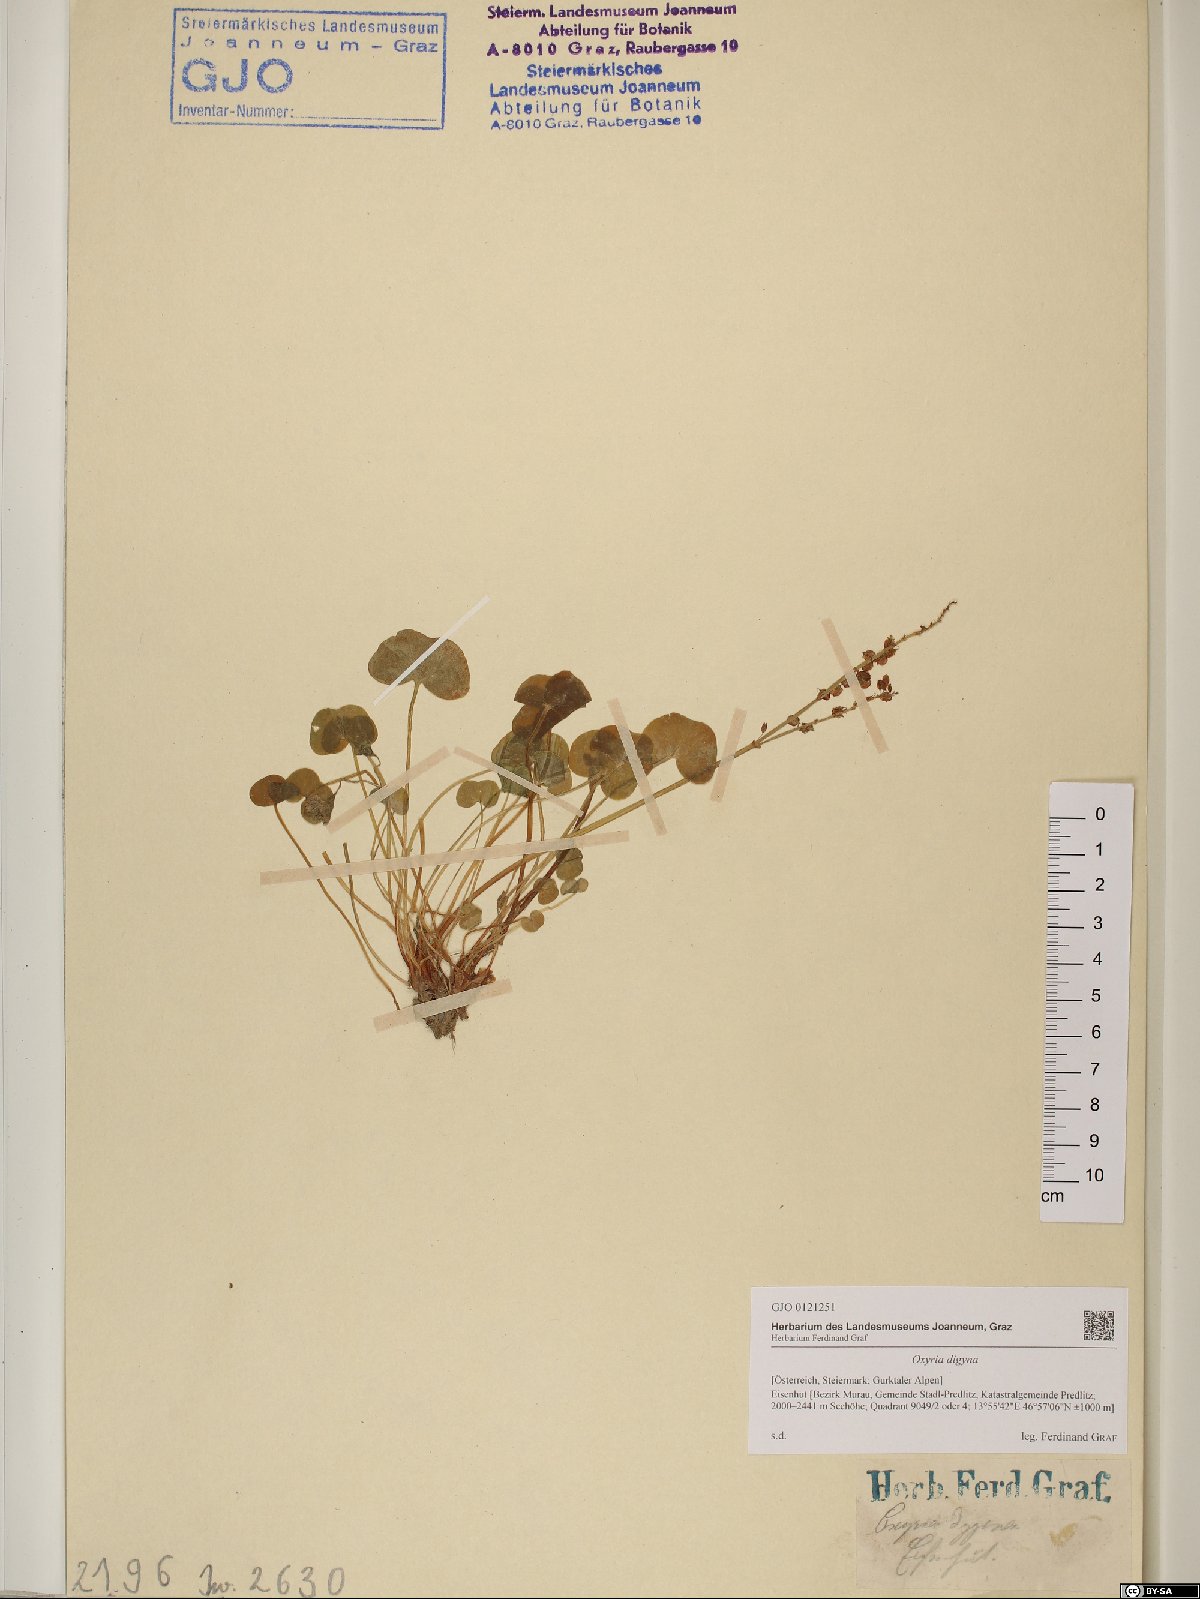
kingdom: Plantae
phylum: Tracheophyta
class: Magnoliopsida
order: Caryophyllales
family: Polygonaceae
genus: Oxyria
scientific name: Oxyria digyna
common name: Alpine mountain-sorrel
